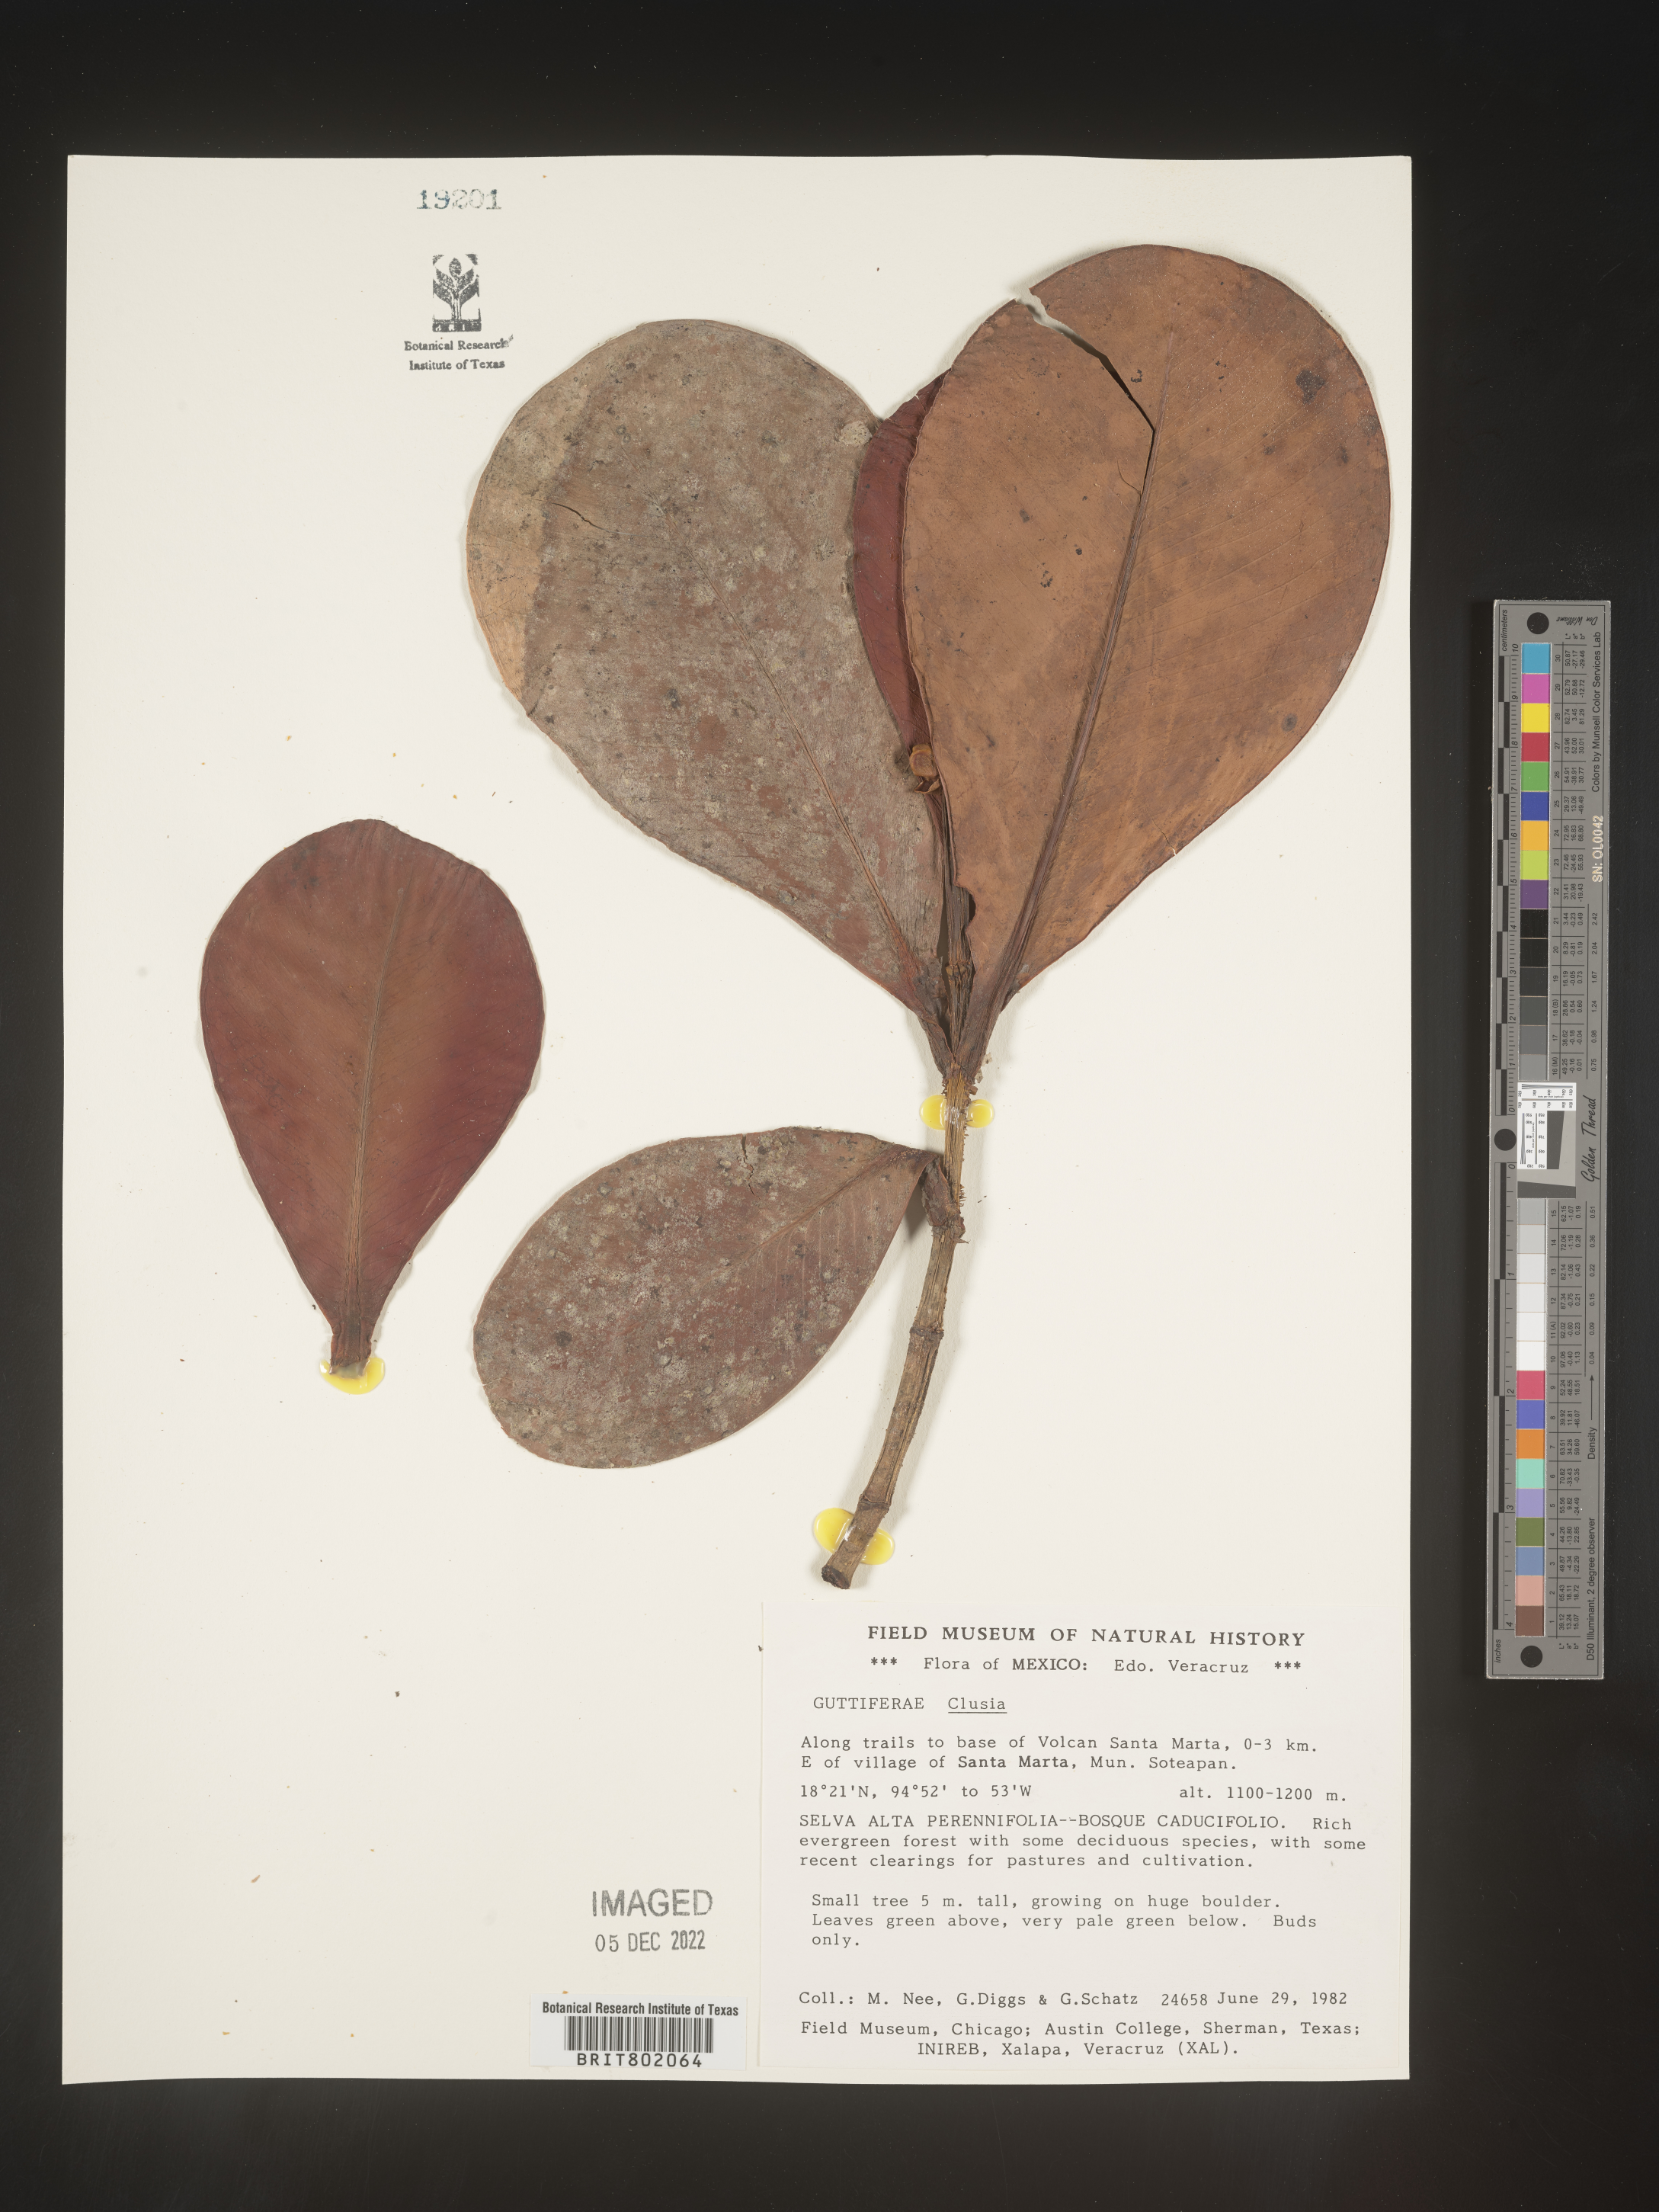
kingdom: Plantae
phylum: Tracheophyta
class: Magnoliopsida
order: Malpighiales
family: Clusiaceae
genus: Clusia
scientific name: Clusia
